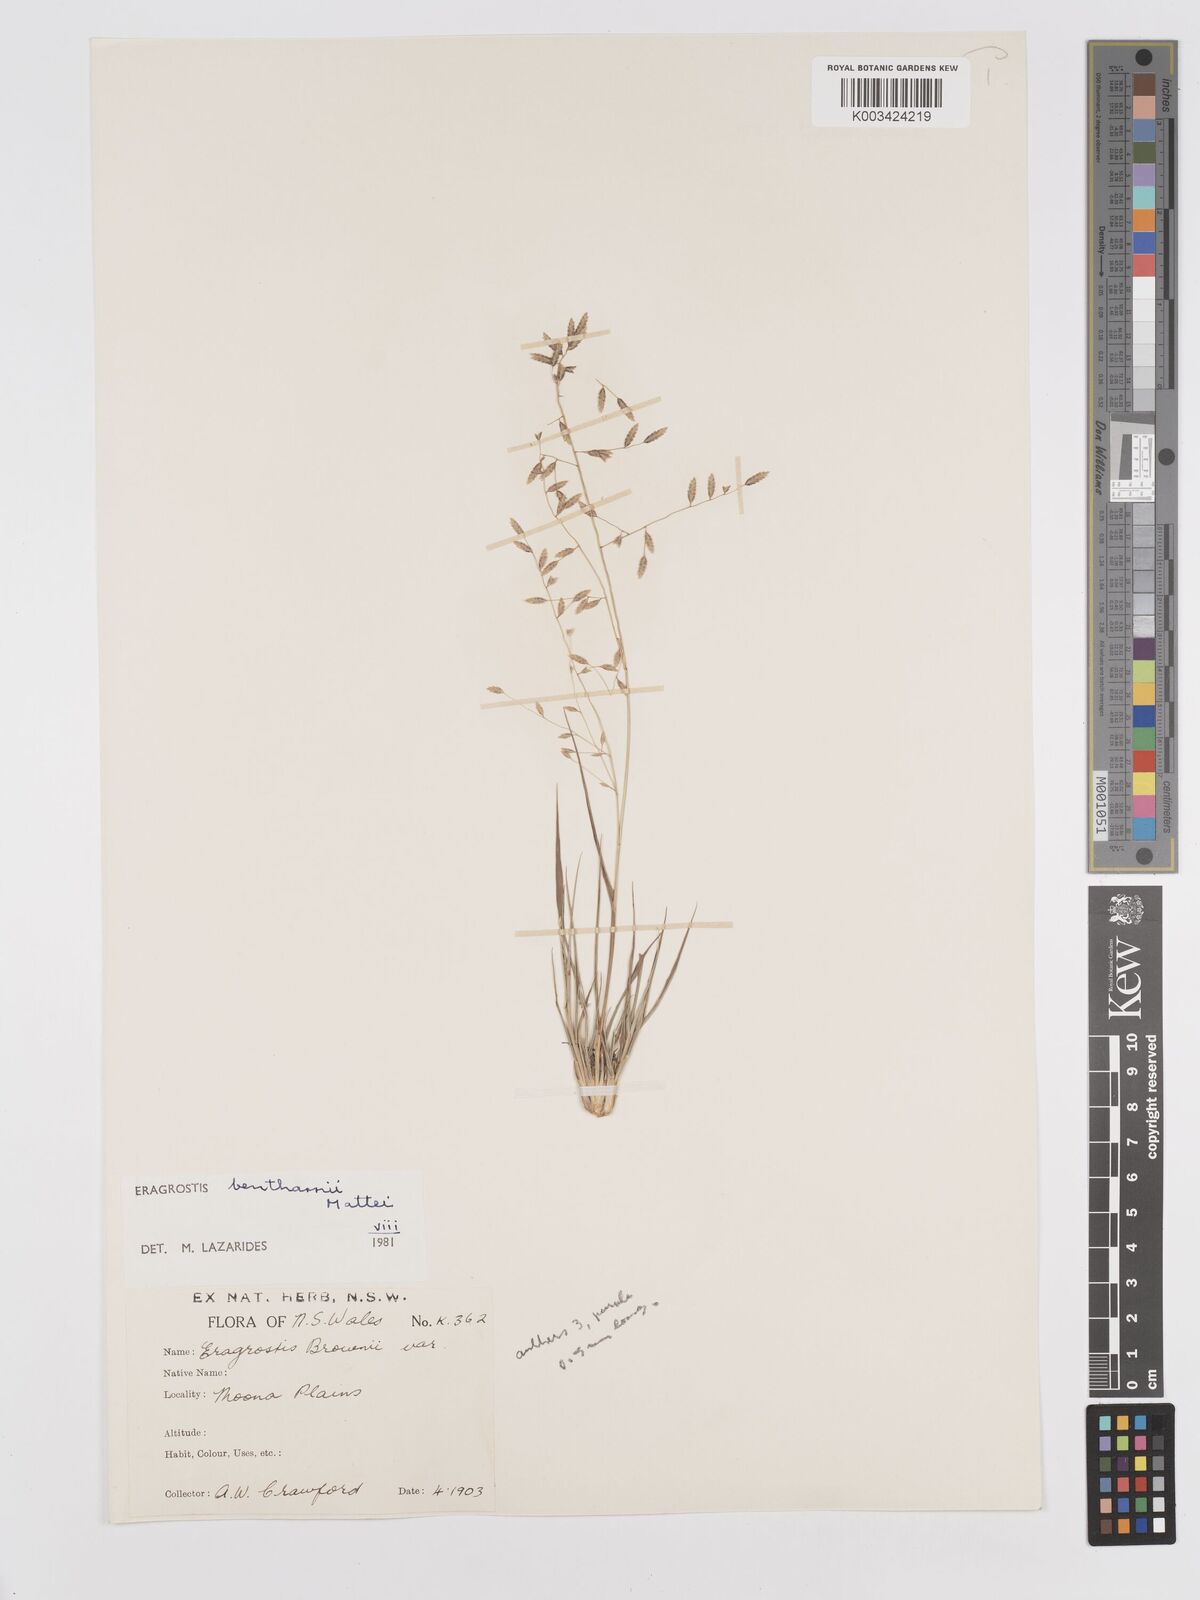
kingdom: Plantae
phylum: Tracheophyta
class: Liliopsida
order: Poales
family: Poaceae
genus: Eragrostis
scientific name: Eragrostis brownii
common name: Lovegrass
